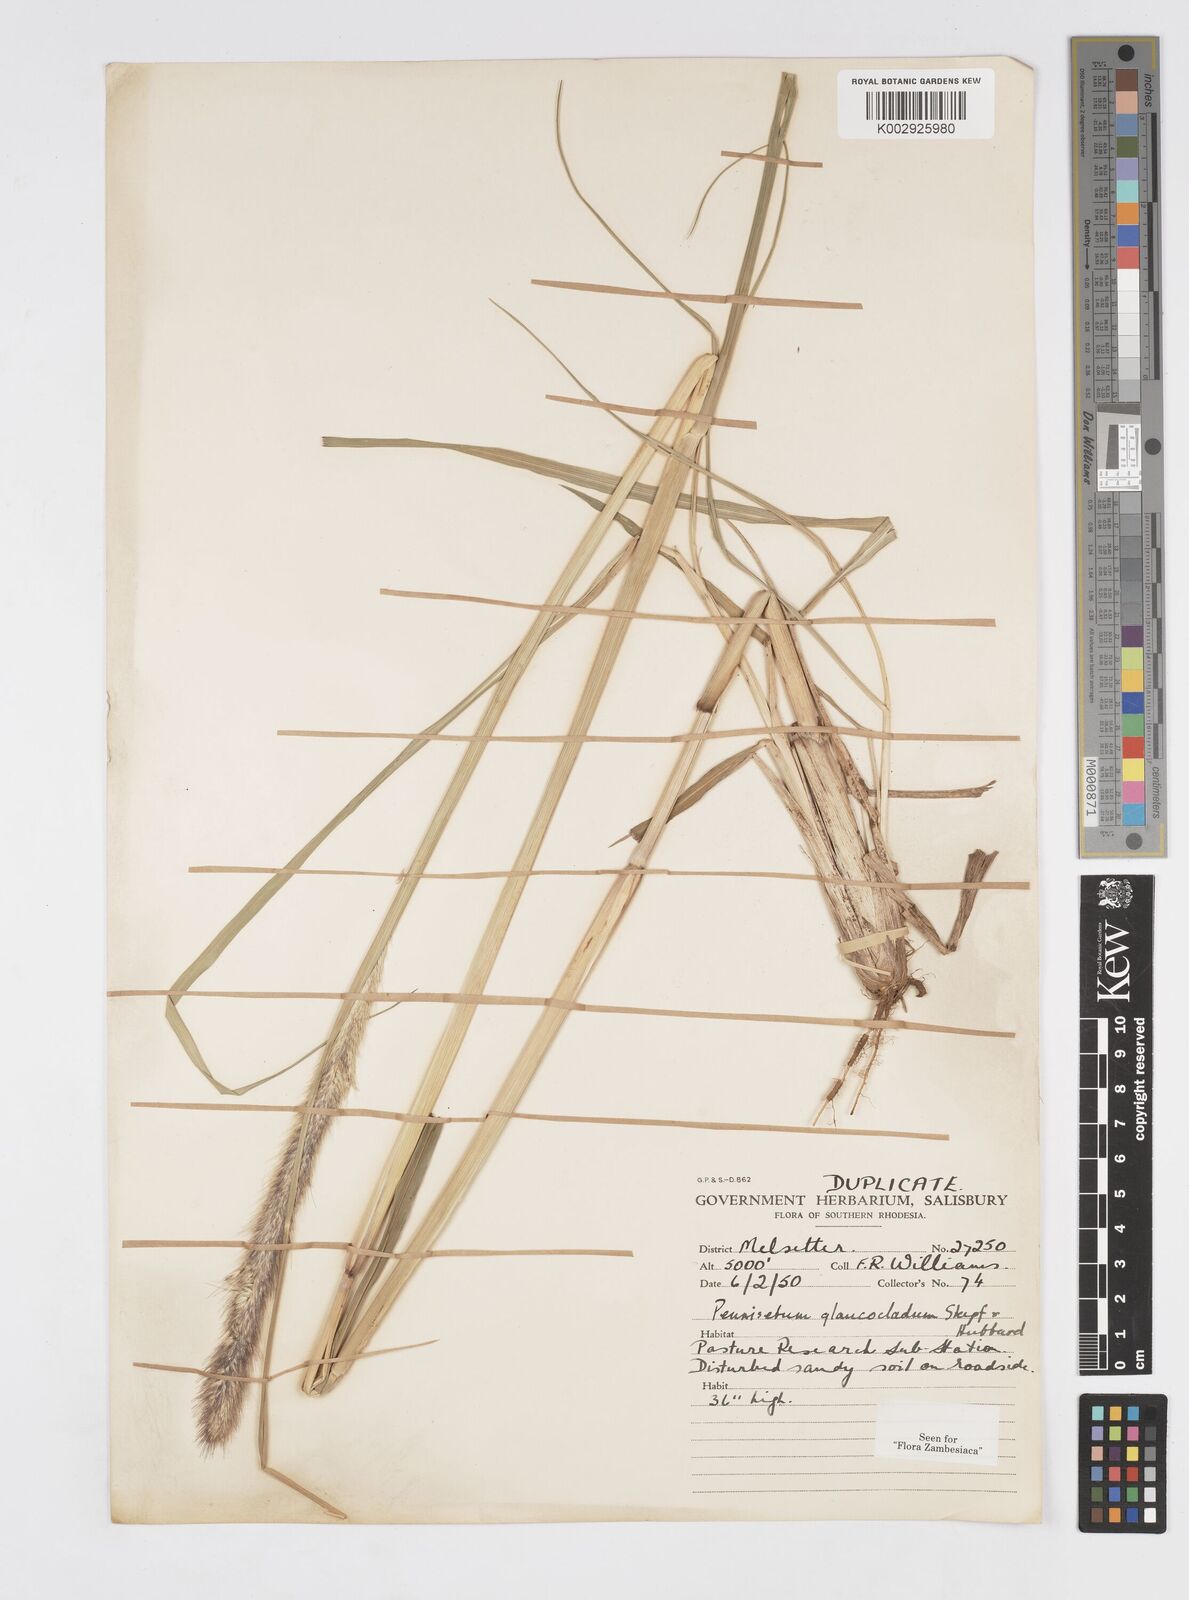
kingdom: Plantae
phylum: Tracheophyta
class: Liliopsida
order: Poales
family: Poaceae
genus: Cenchrus
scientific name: Cenchrus caudatus
